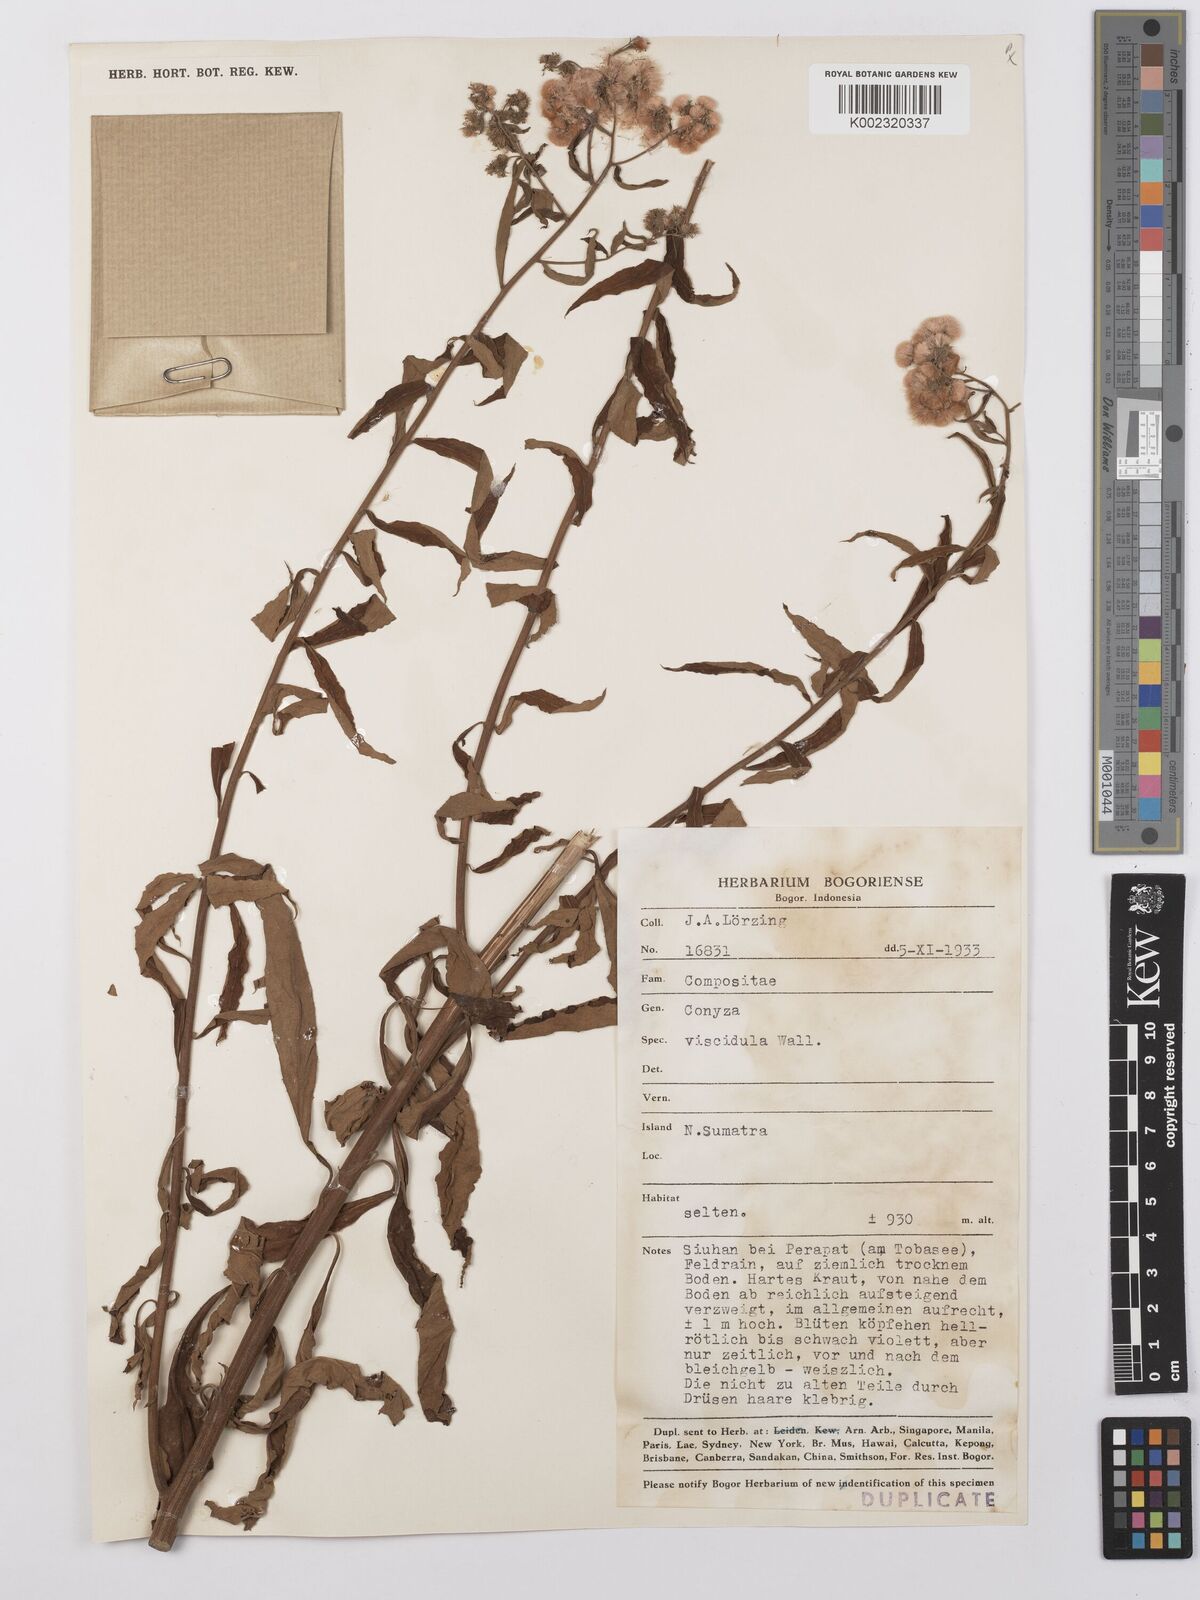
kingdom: Plantae
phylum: Tracheophyta
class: Magnoliopsida
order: Asterales
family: Asteraceae
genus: Eschenbachia
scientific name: Eschenbachia leucantha
